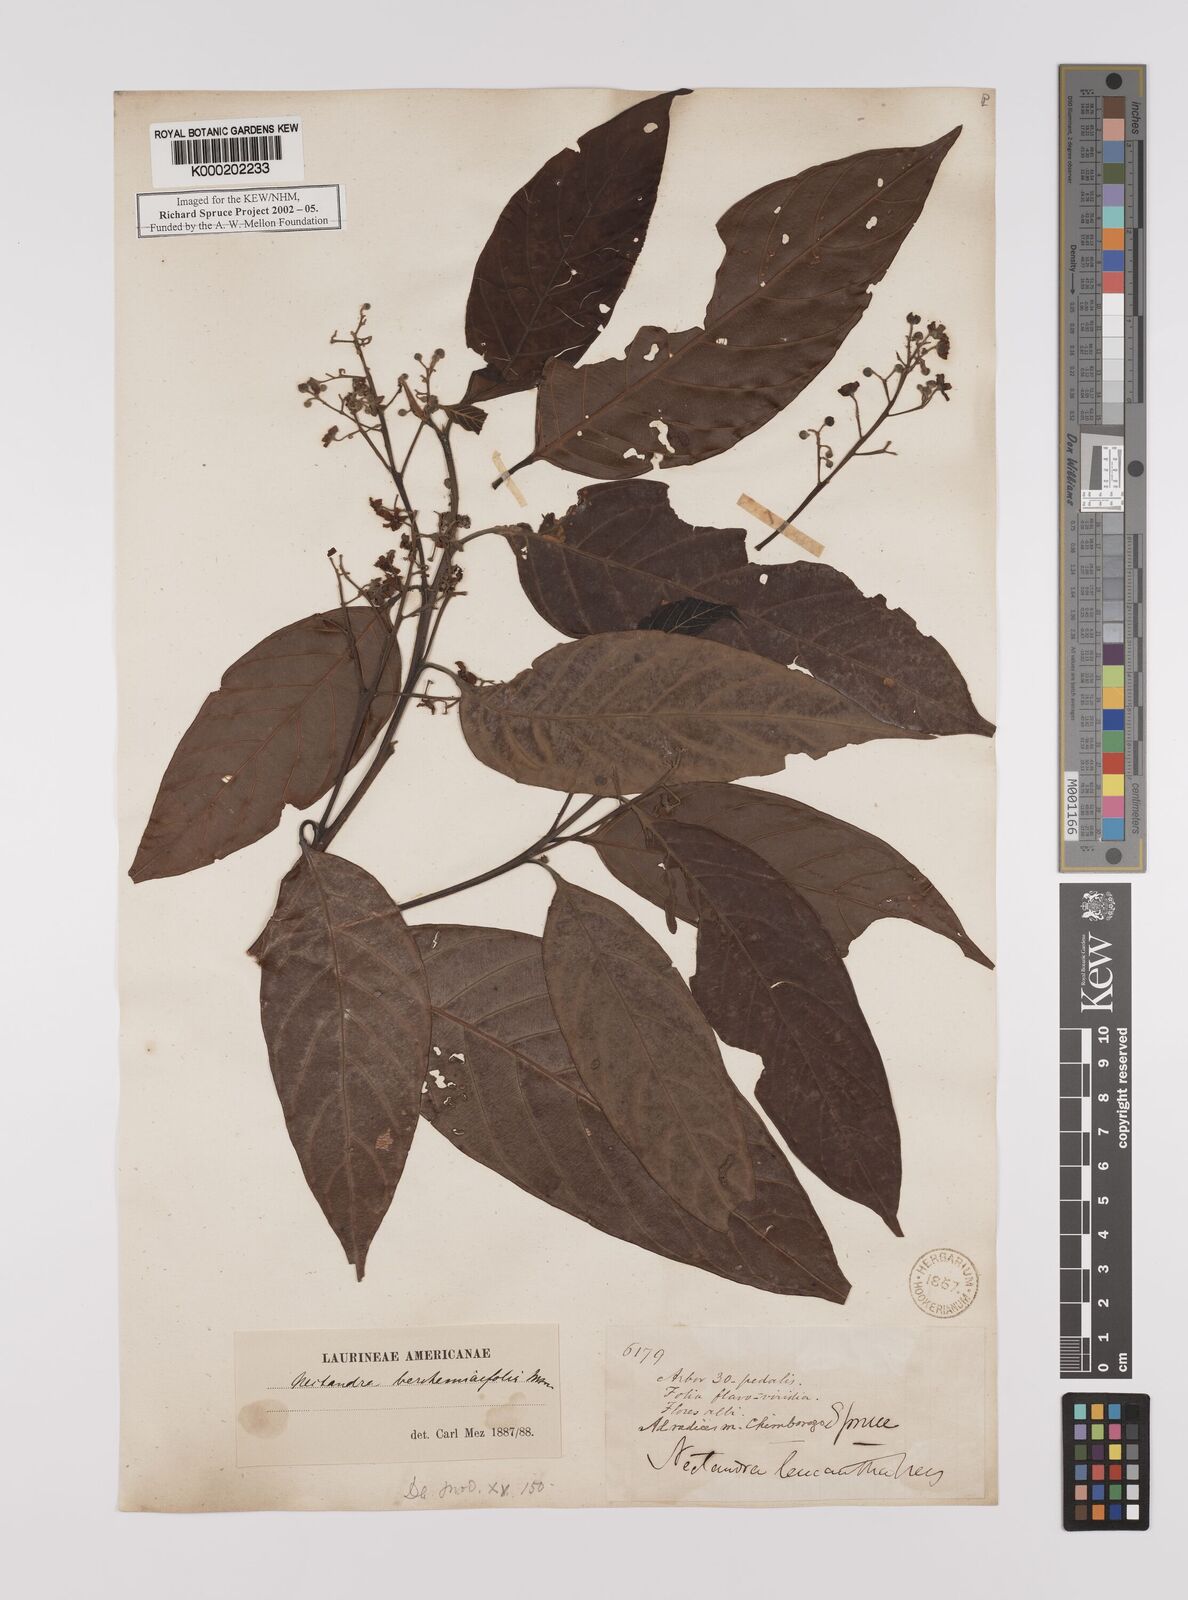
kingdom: Plantae
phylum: Tracheophyta
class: Magnoliopsida
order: Laurales
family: Lauraceae
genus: Nectandra
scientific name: Nectandra acutifolia
